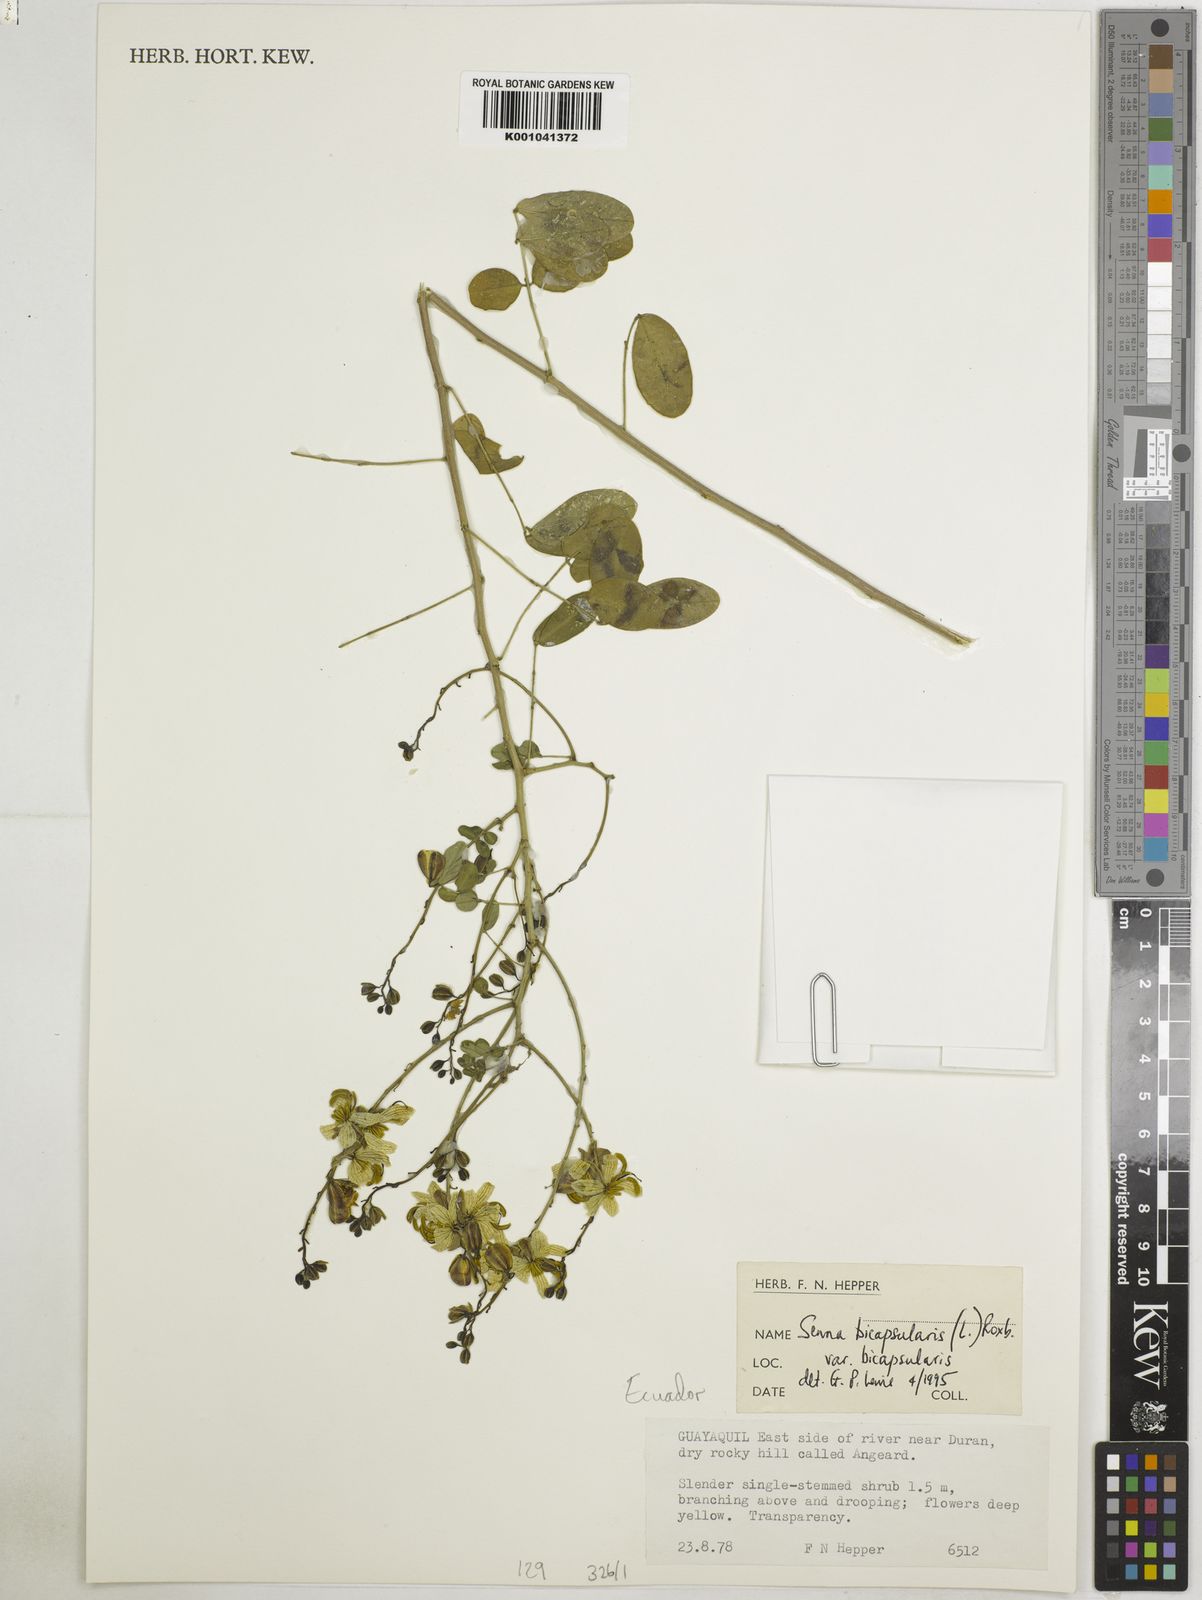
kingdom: Plantae
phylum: Tracheophyta
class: Magnoliopsida
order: Fabales
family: Fabaceae
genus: Senna
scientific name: Senna bicapsularis
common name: Christmasbush
